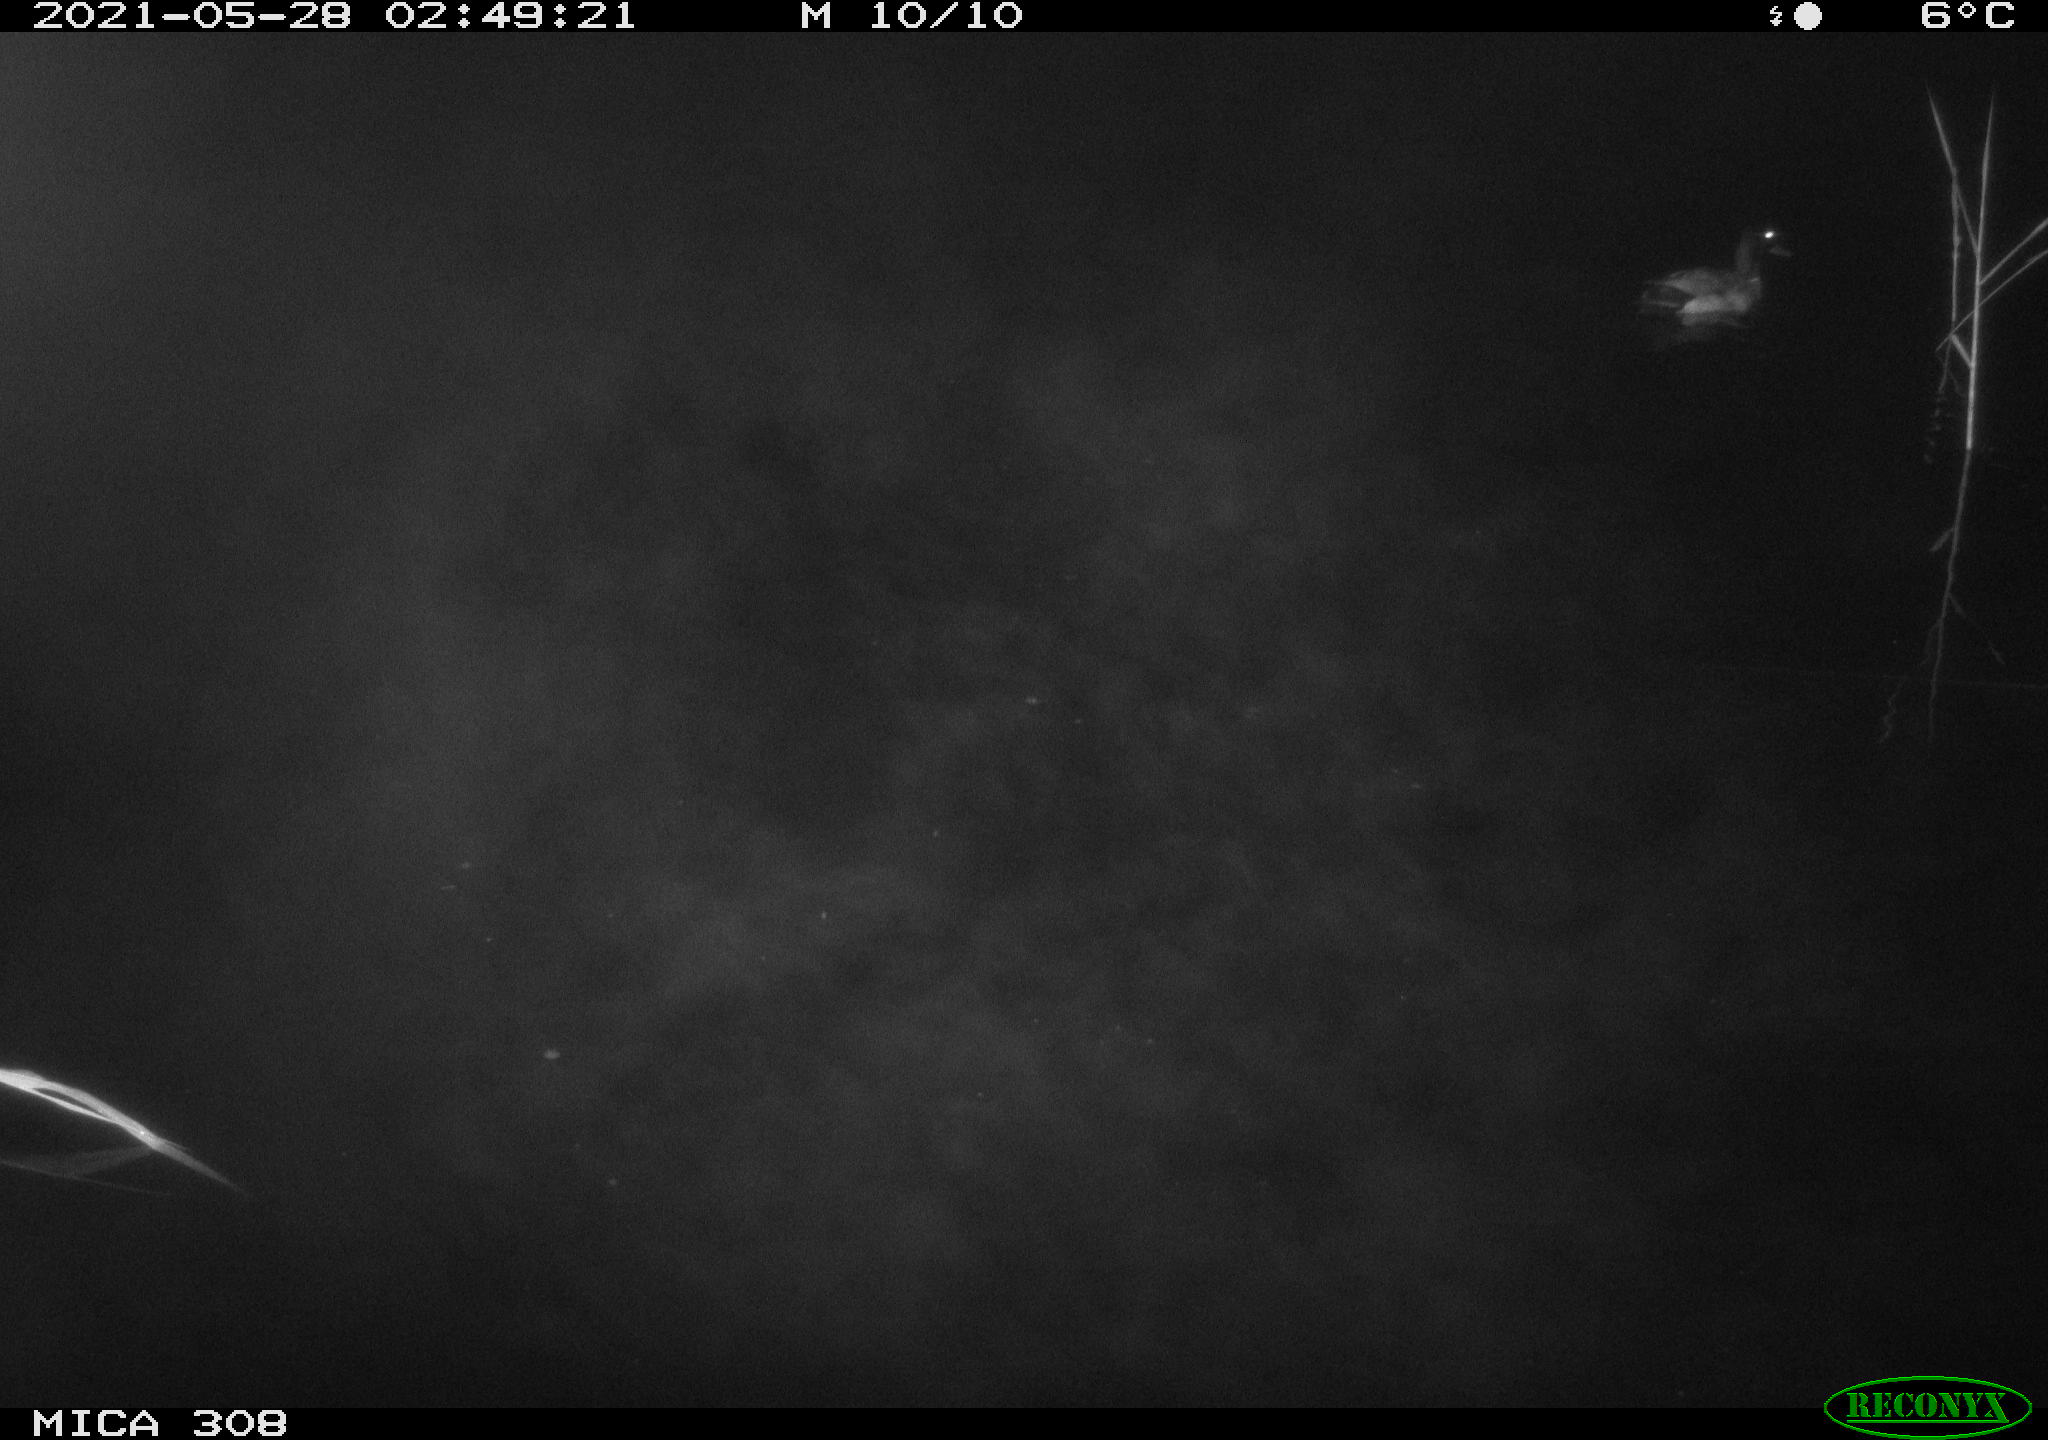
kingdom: Animalia
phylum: Chordata
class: Aves
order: Anseriformes
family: Anatidae
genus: Anas
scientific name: Anas platyrhynchos
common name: Mallard
